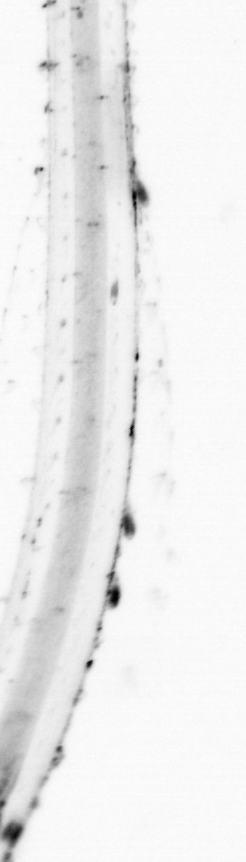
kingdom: Animalia
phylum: Chaetognatha
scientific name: Chaetognatha
